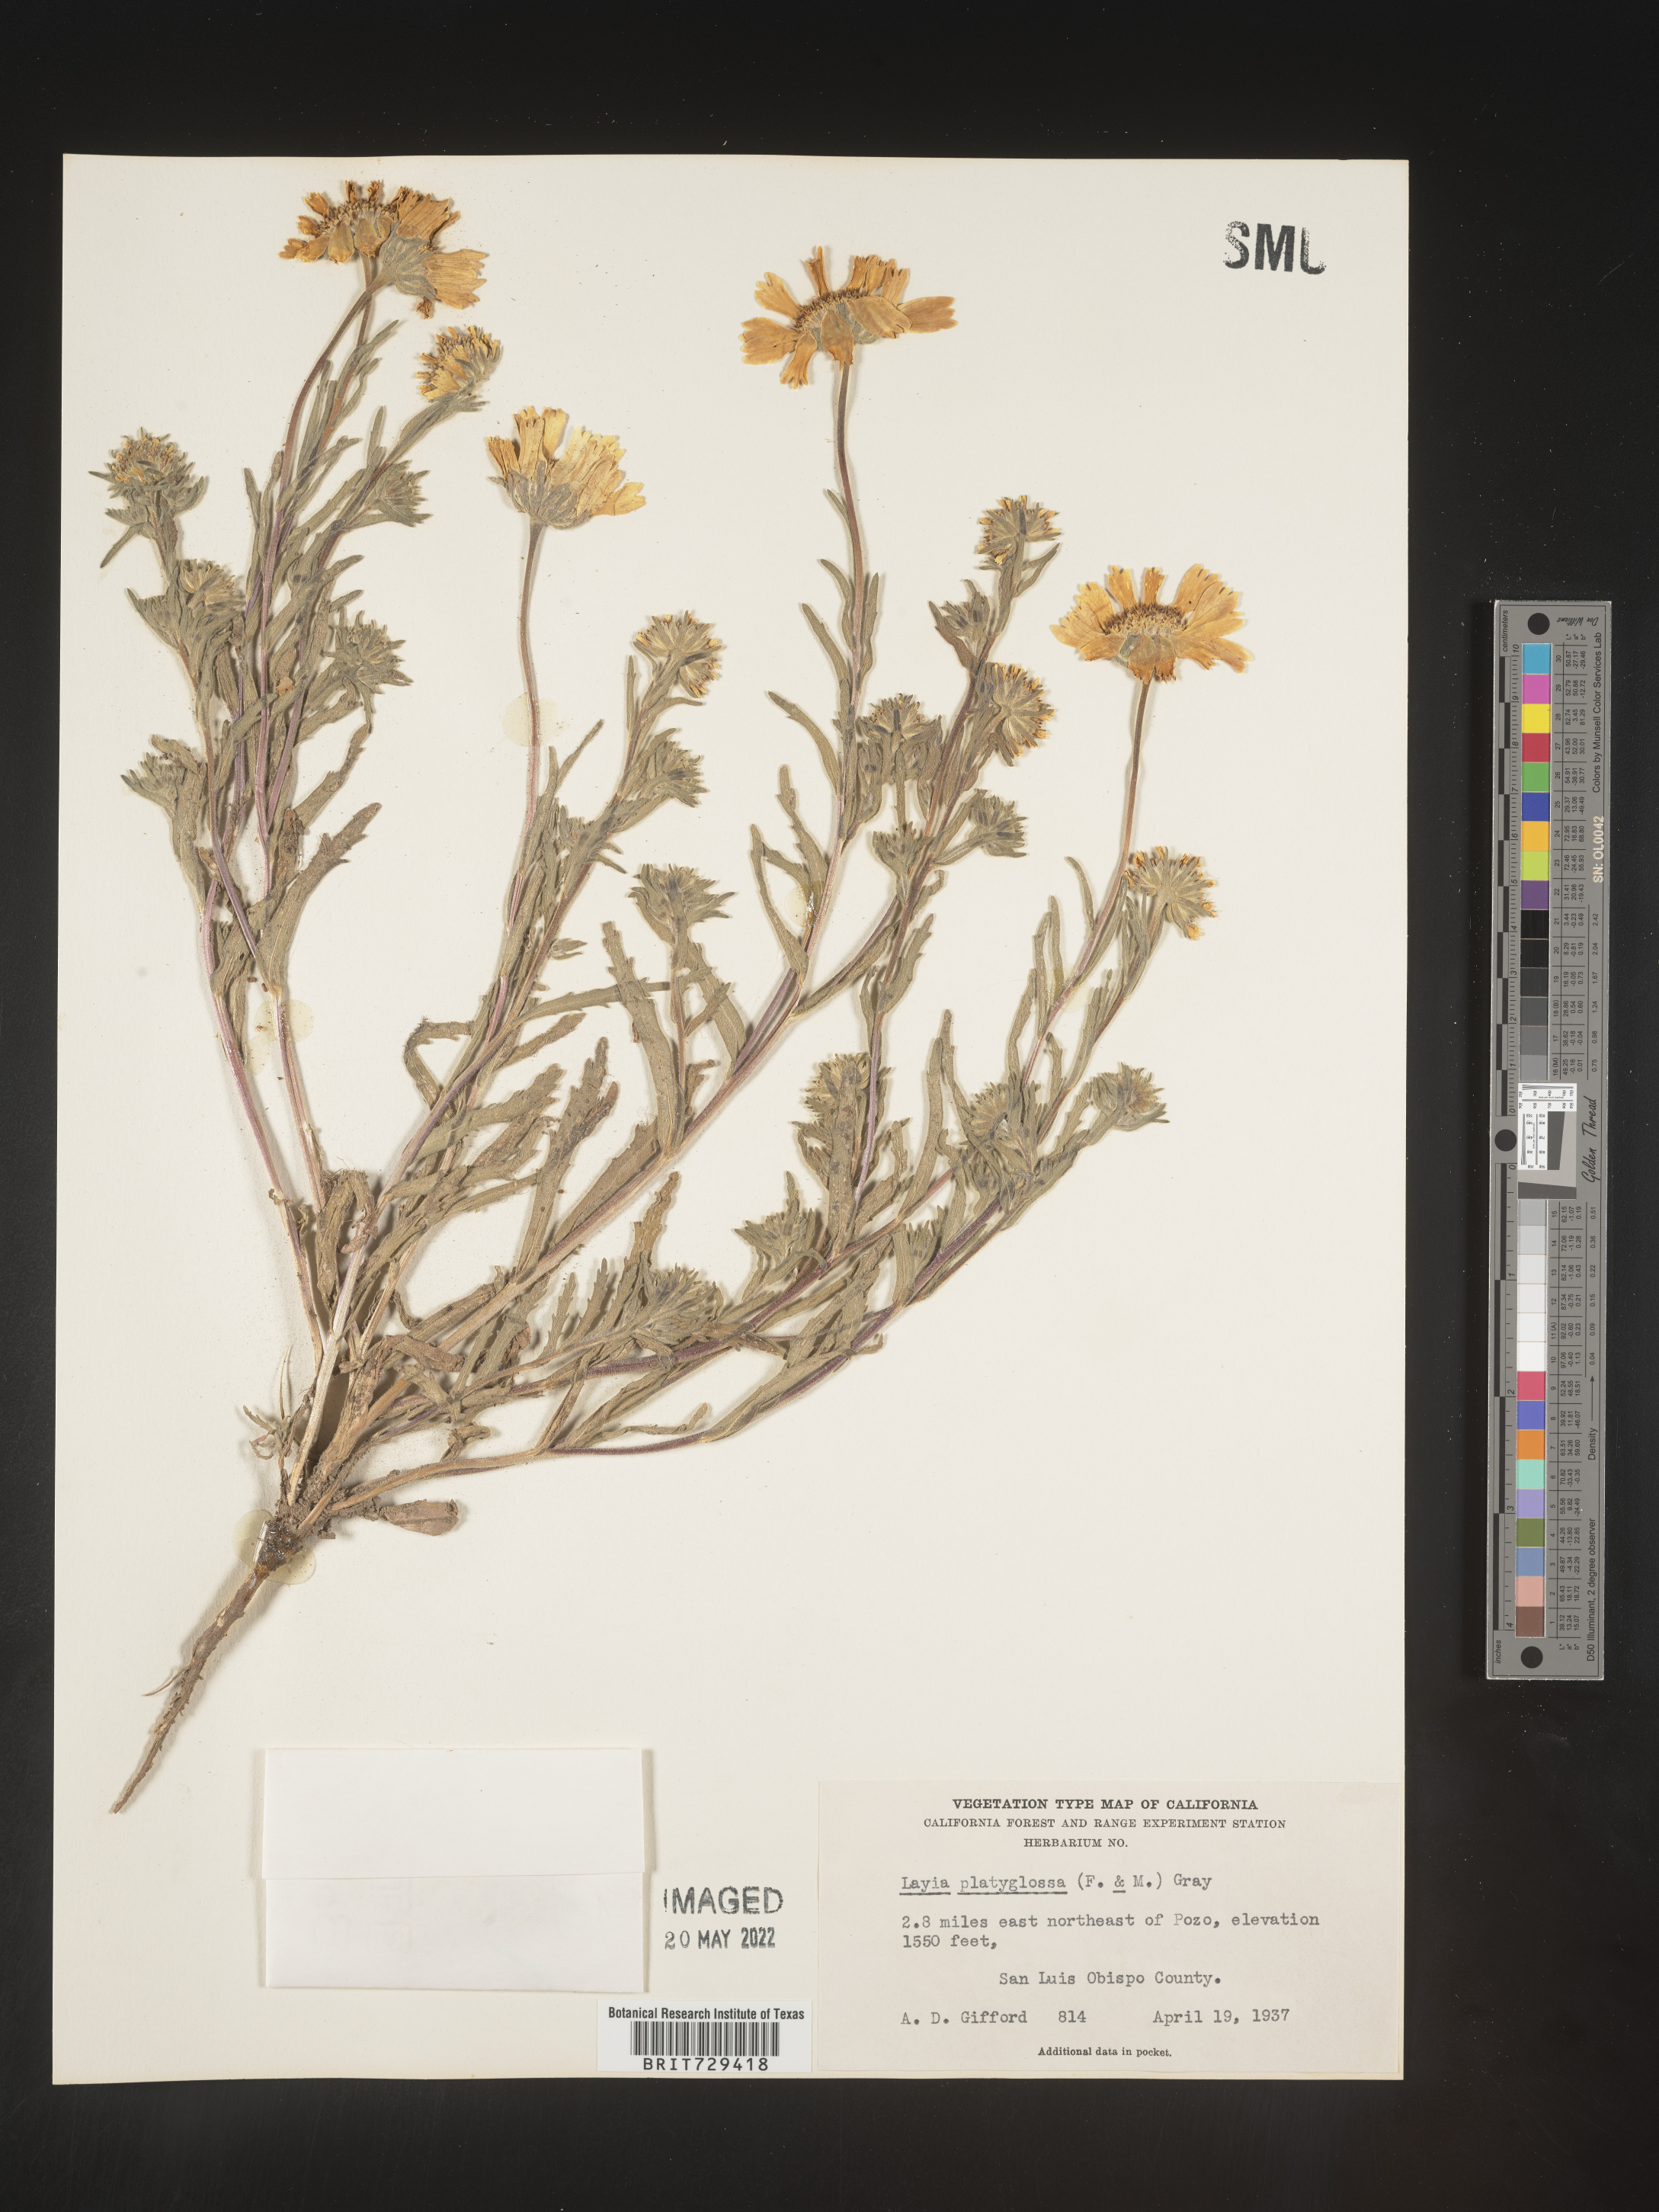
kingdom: Plantae
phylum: Tracheophyta
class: Magnoliopsida
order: Asterales
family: Asteraceae
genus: Layia
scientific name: Layia
